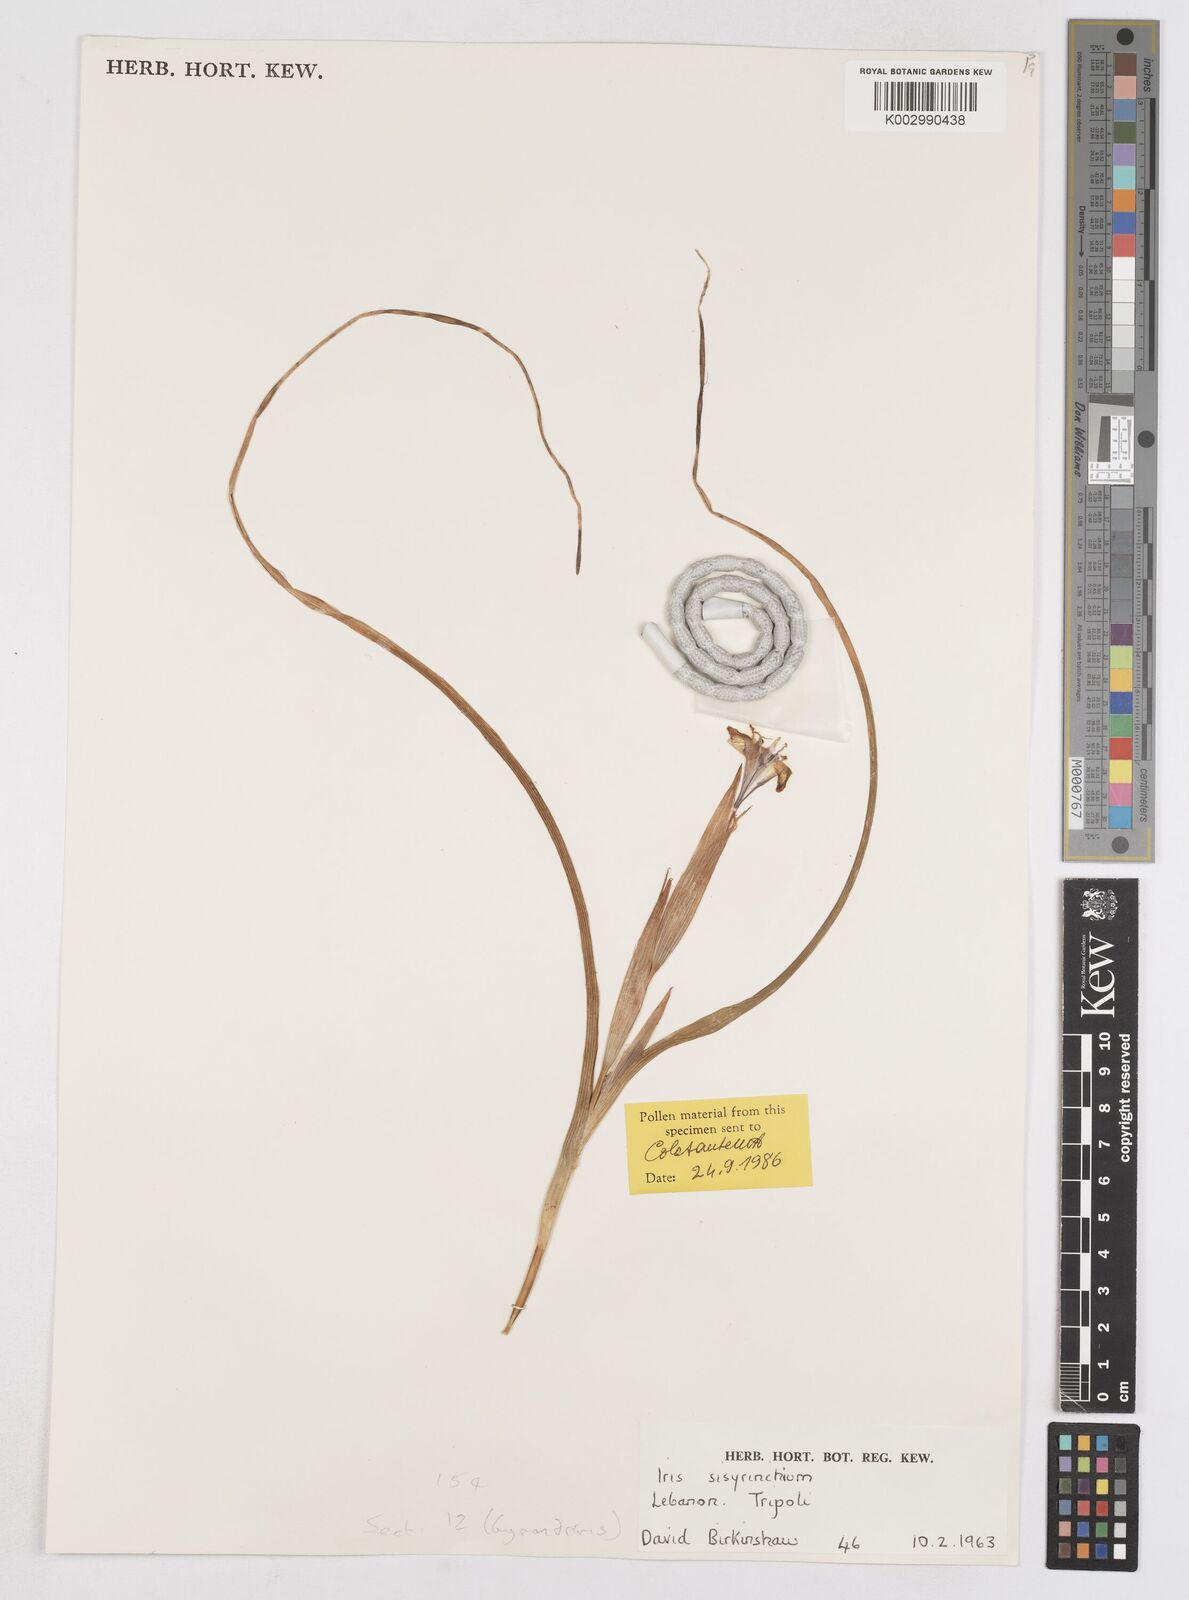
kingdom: Plantae
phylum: Tracheophyta
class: Liliopsida
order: Asparagales
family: Iridaceae
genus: Moraea
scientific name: Moraea sisyrinchium
